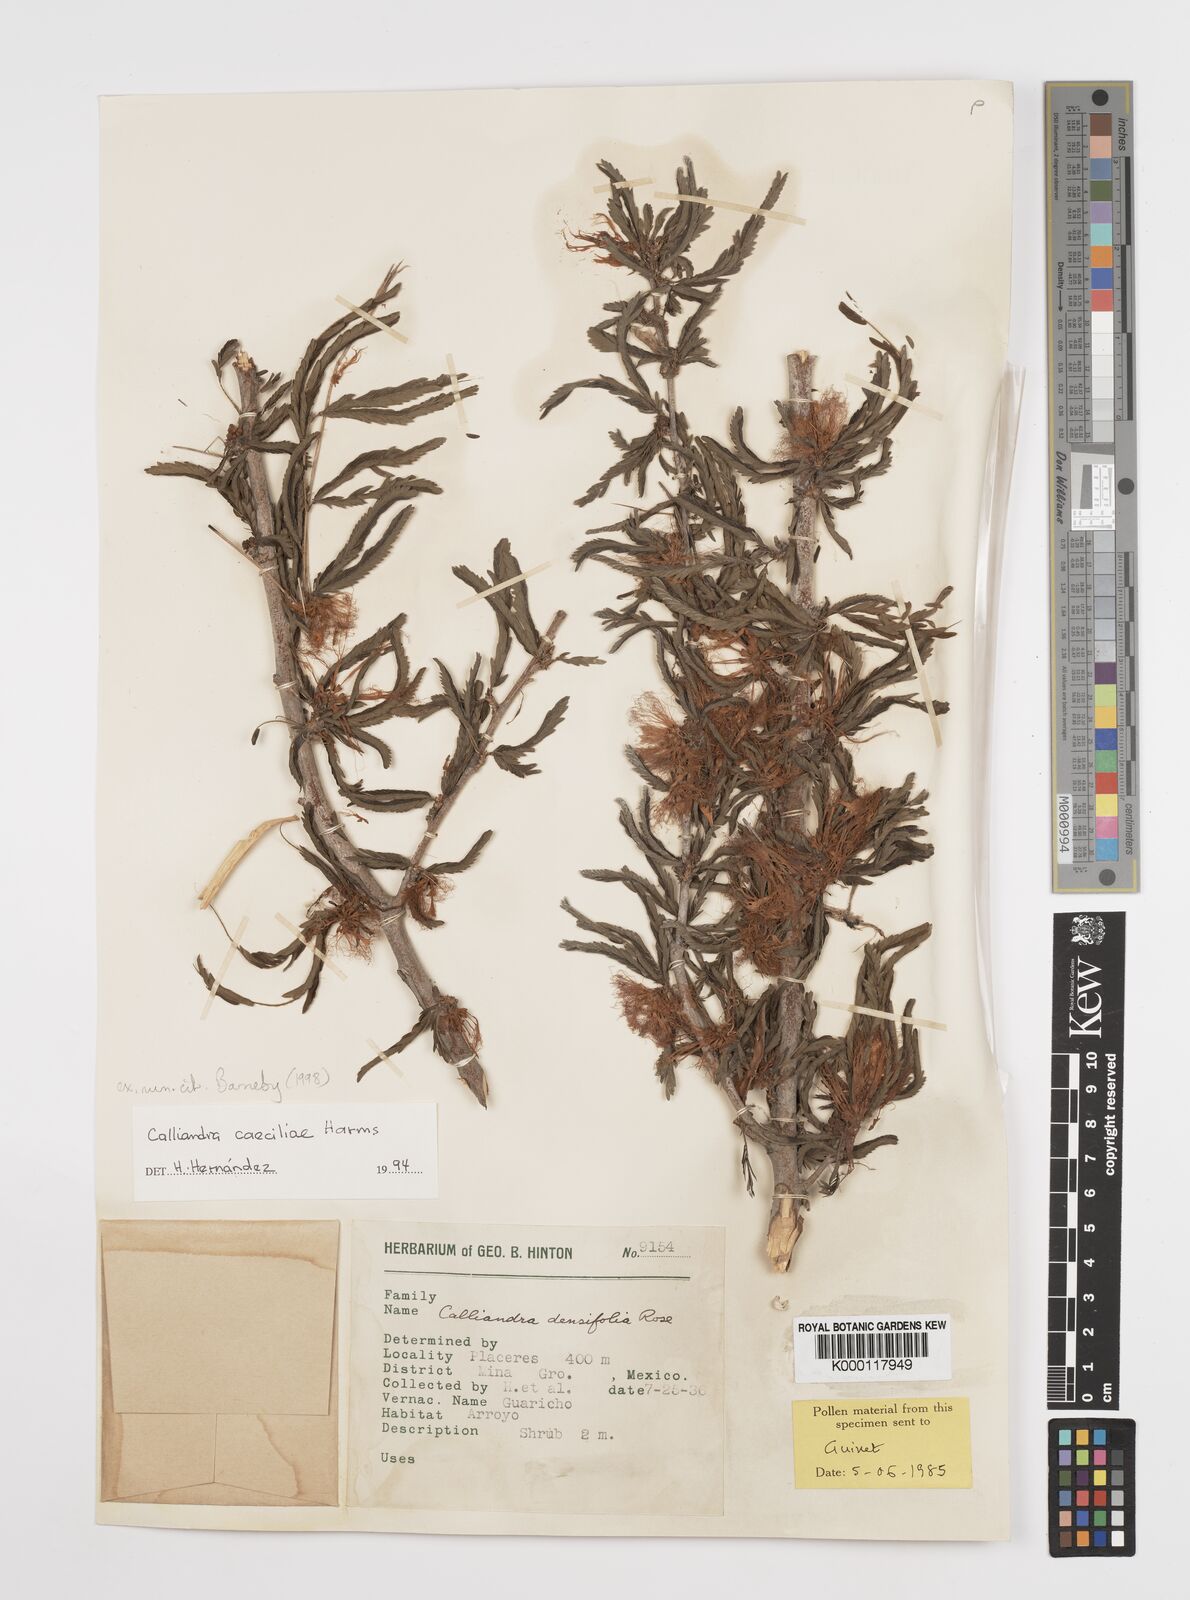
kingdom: Plantae
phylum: Tracheophyta
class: Magnoliopsida
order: Fabales
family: Fabaceae
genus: Calliandra
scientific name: Calliandra caeciliae
